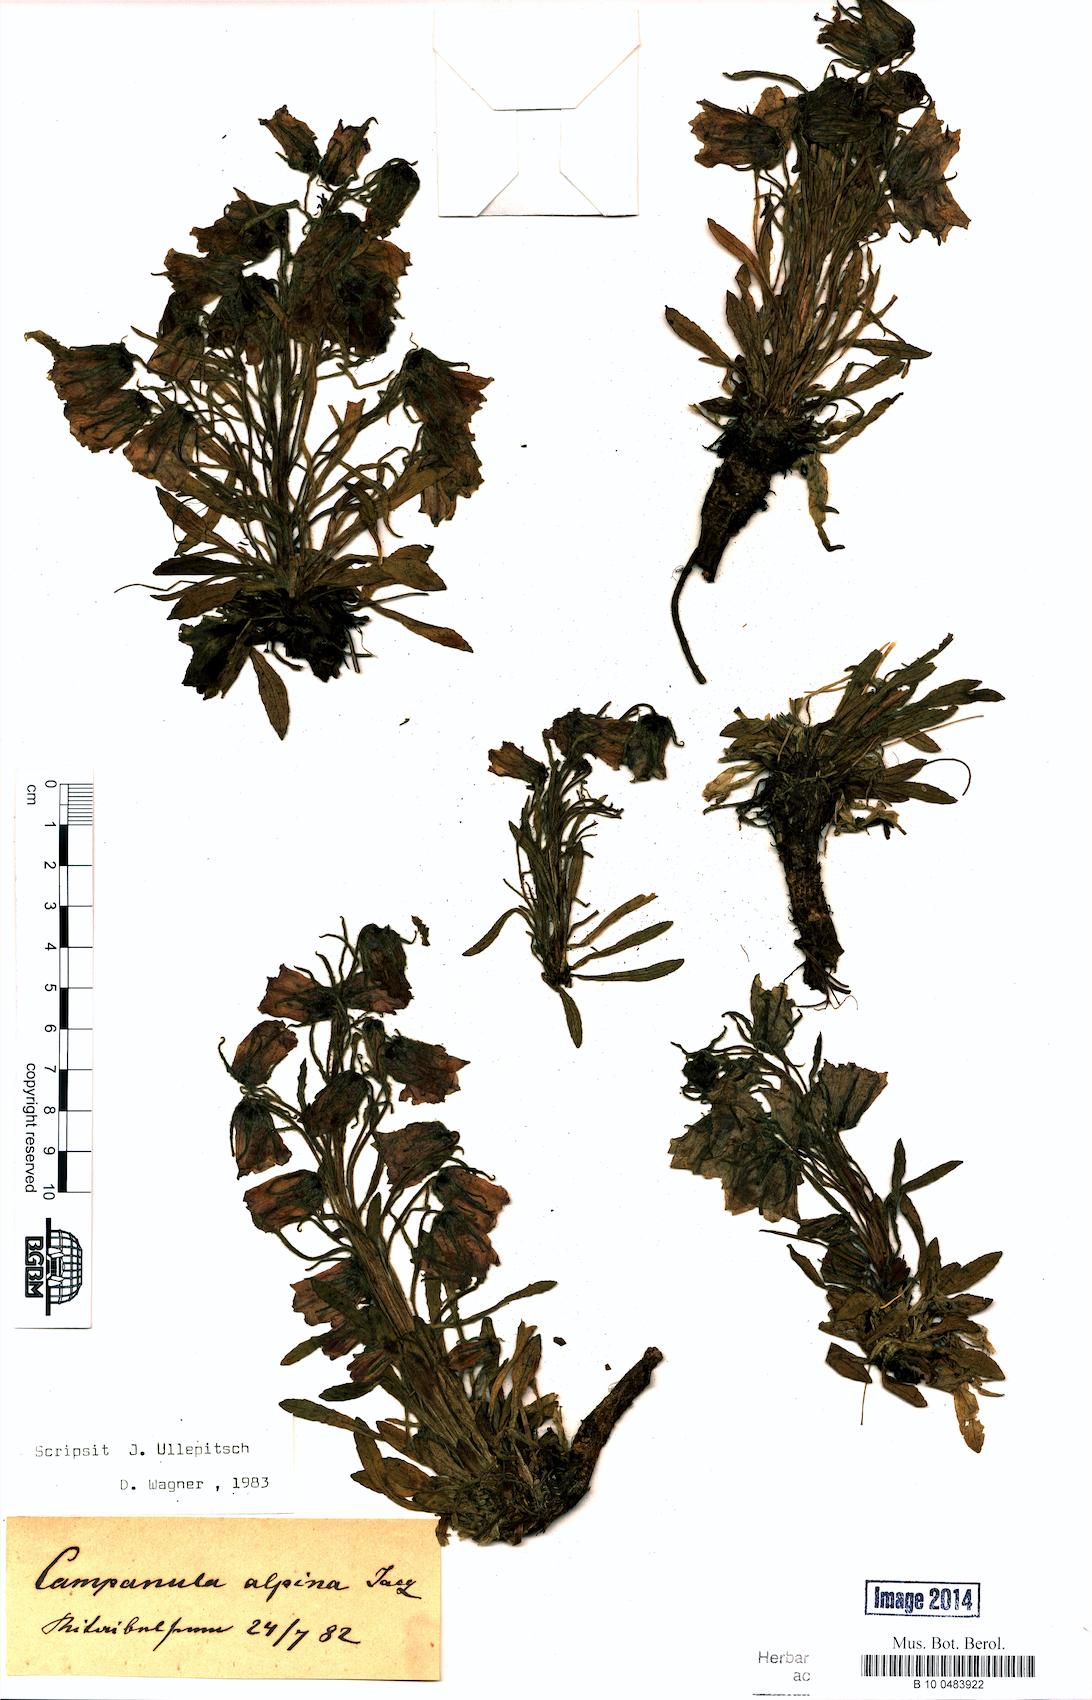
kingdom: Plantae
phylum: Tracheophyta
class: Magnoliopsida
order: Asterales
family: Campanulaceae
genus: Campanula
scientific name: Campanula alpina
